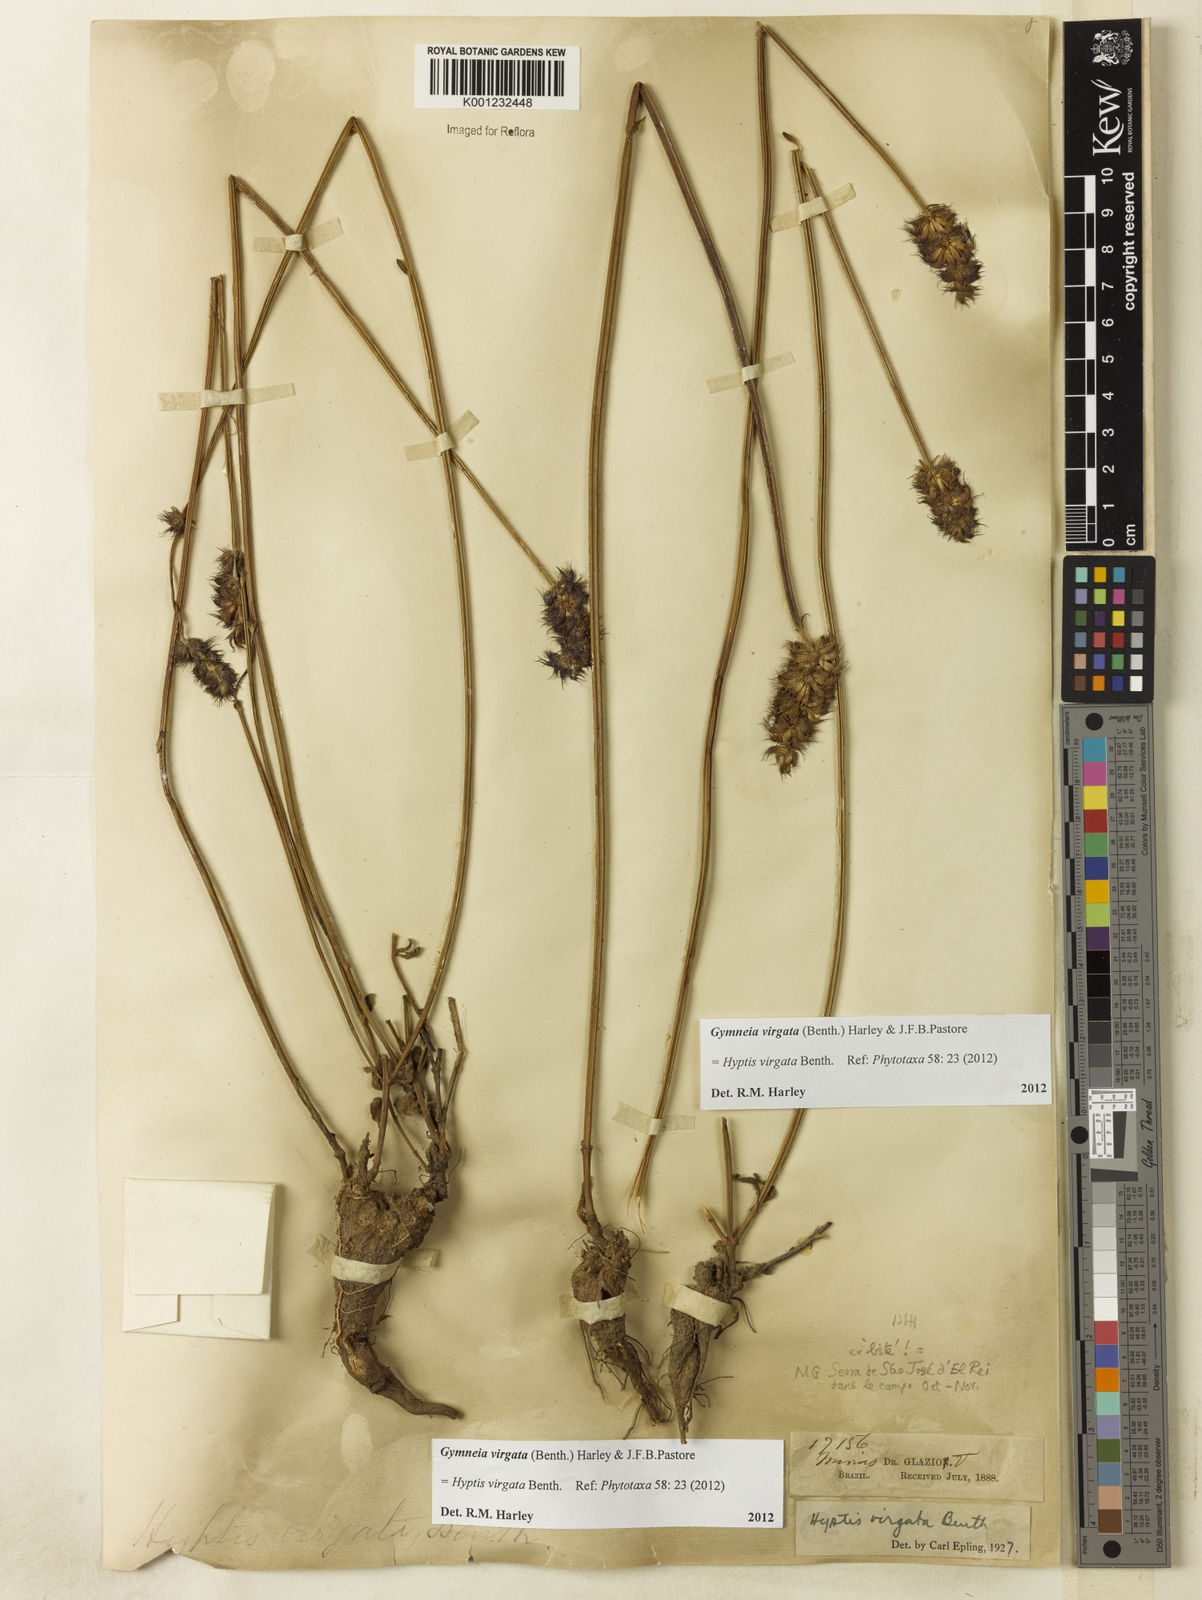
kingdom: Plantae
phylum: Tracheophyta
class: Magnoliopsida
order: Lamiales
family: Lamiaceae
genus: Gymneia
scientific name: Gymneia virgata
